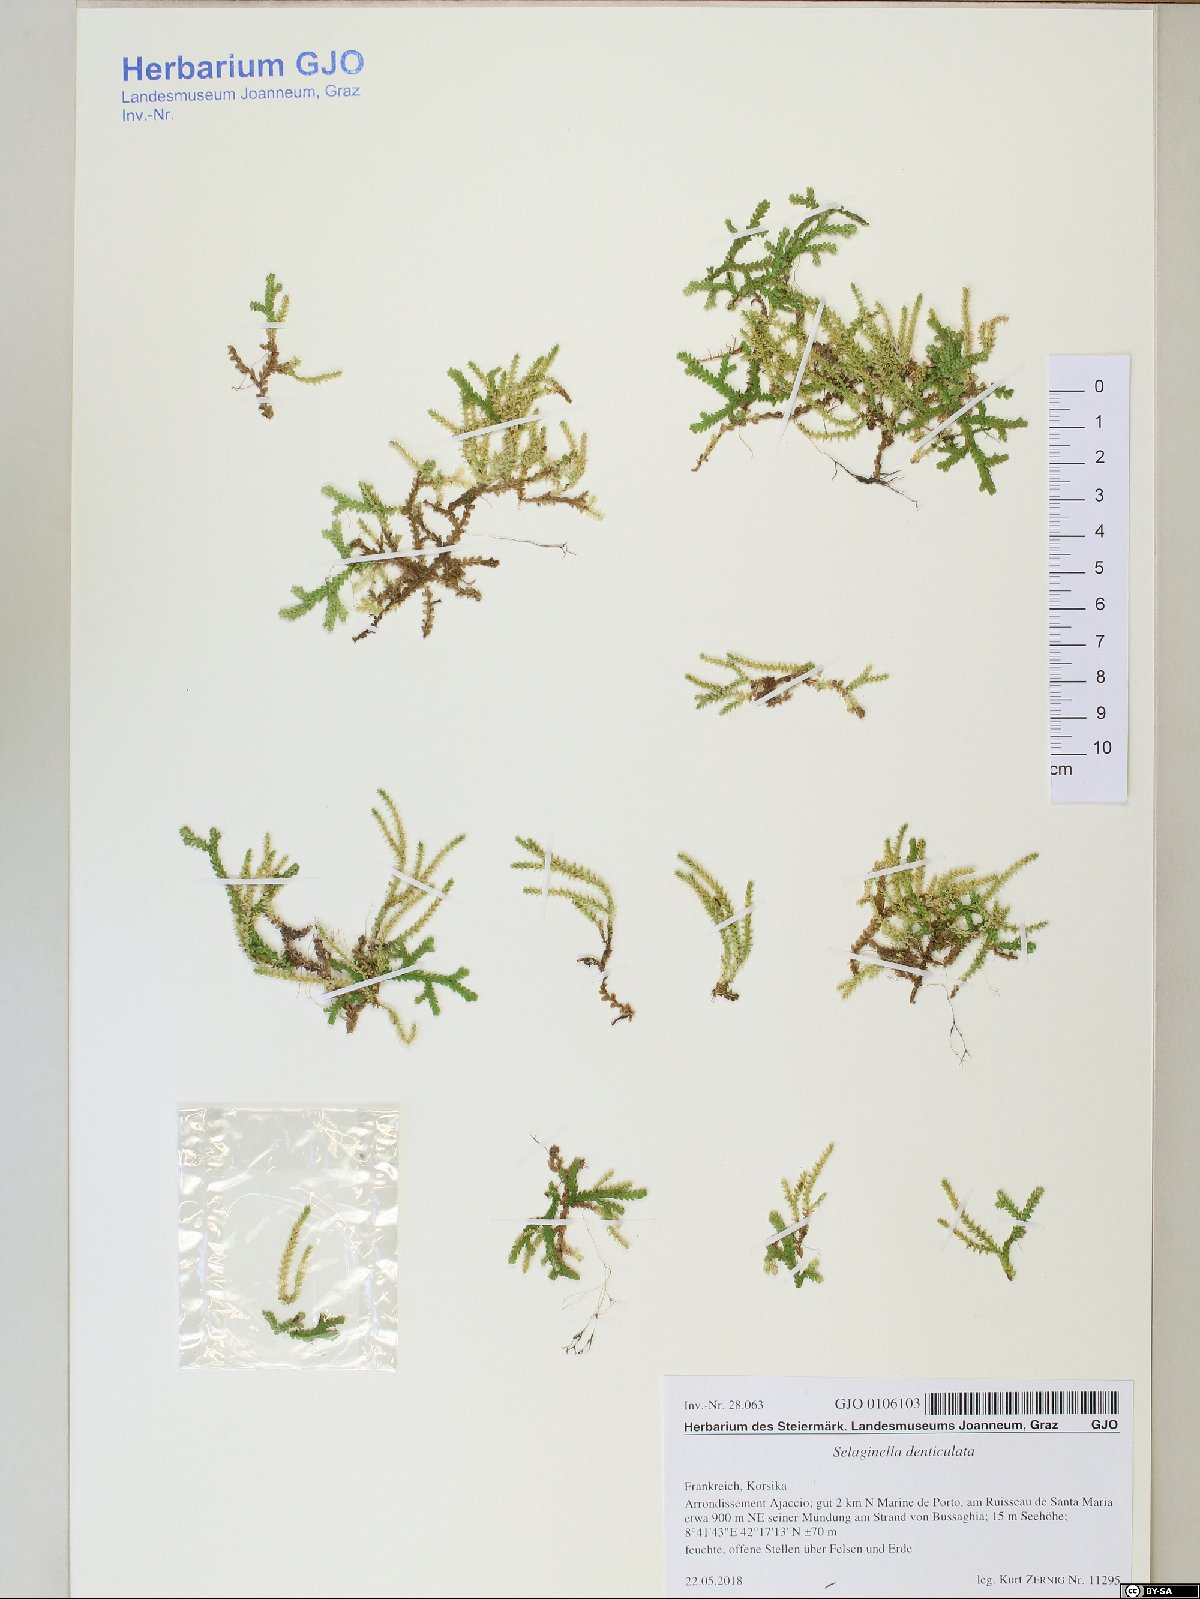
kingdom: Plantae
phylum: Tracheophyta
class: Lycopodiopsida
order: Selaginellales
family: Selaginellaceae
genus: Selaginella
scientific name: Selaginella denticulata
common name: Toothed-leaved clubmoss
